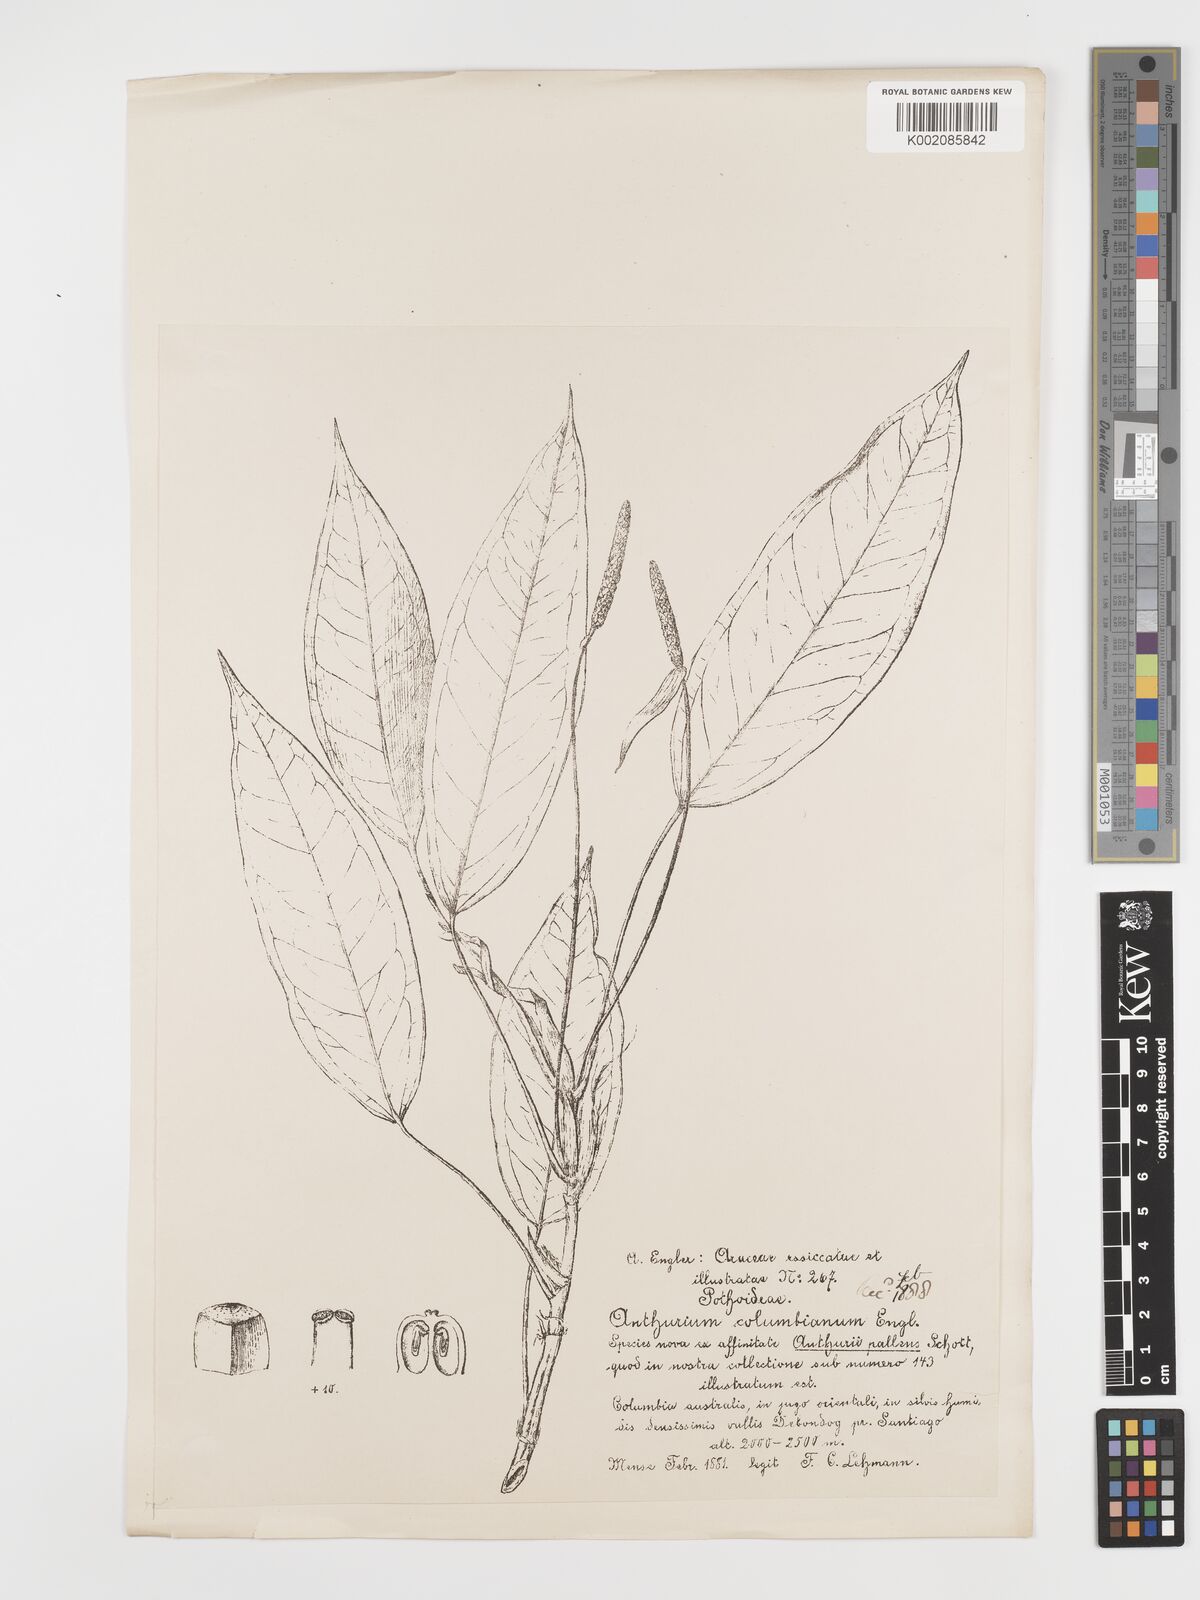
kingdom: Plantae
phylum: Tracheophyta
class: Liliopsida
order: Alismatales
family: Araceae
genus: Anthurium
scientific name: Anthurium microspadix
